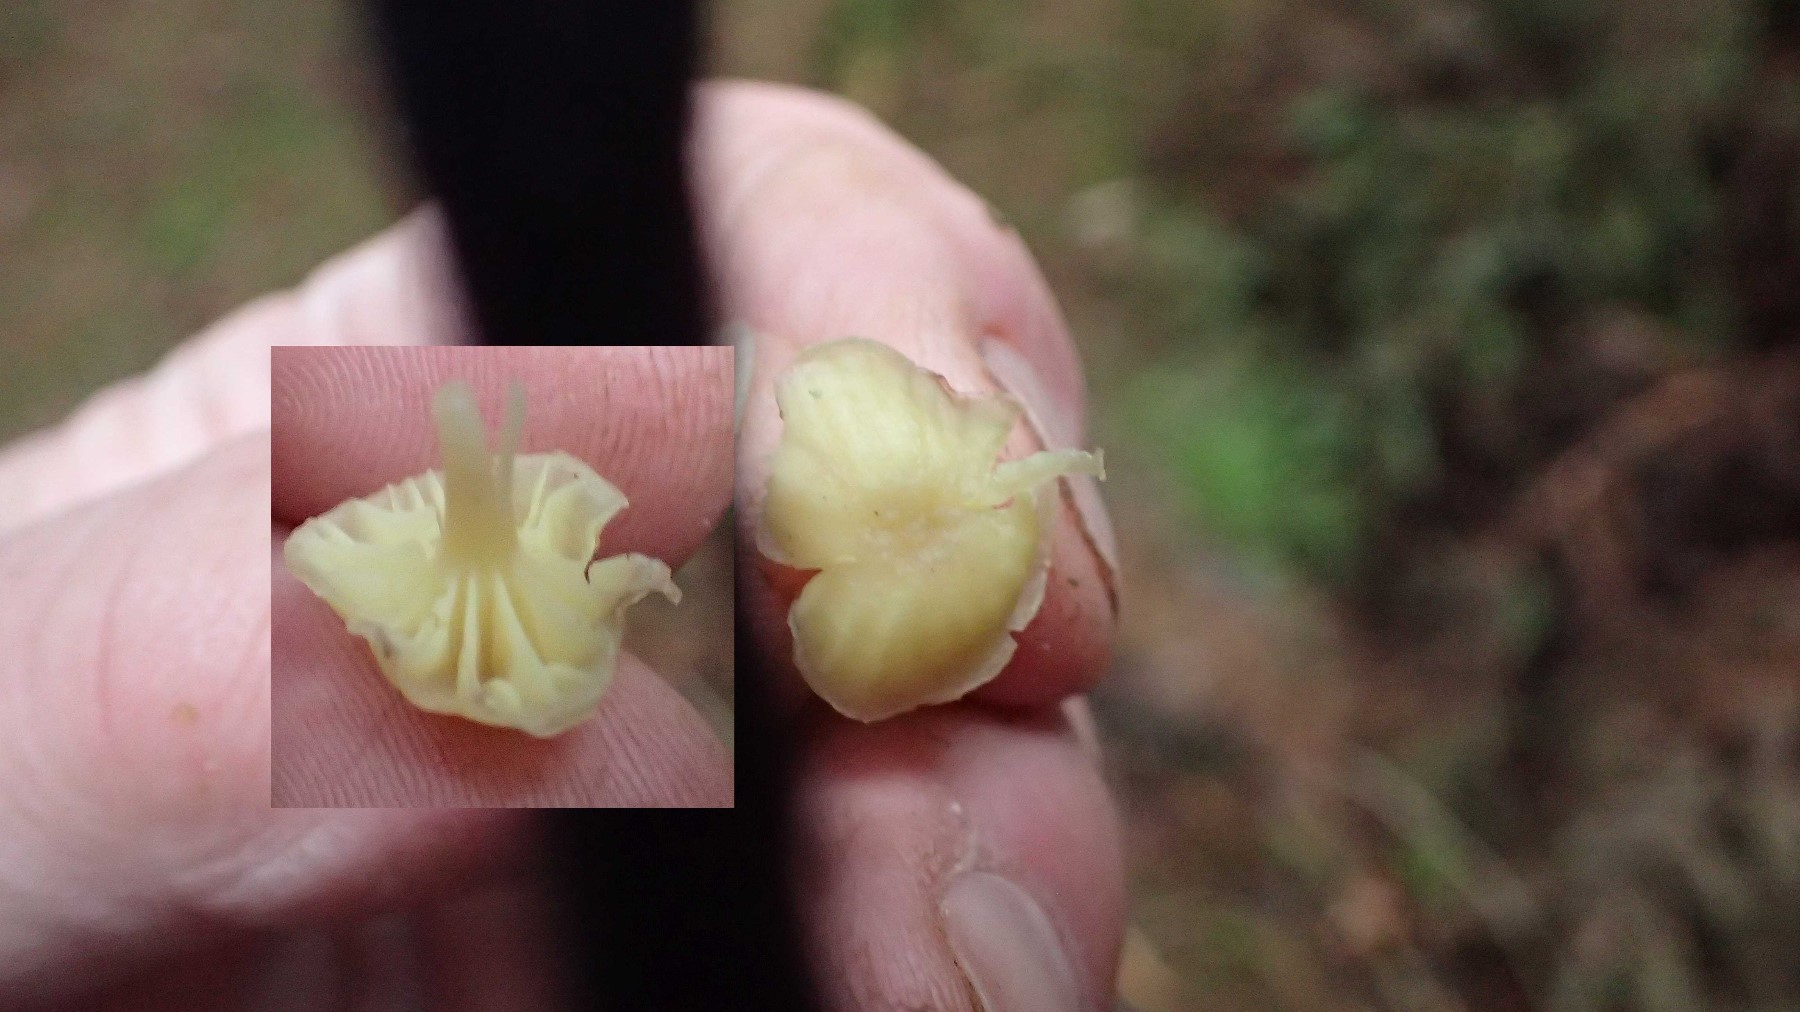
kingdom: Fungi
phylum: Basidiomycota
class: Agaricomycetes
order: Agaricales
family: Hygrophoraceae
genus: Chrysomphalina
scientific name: Chrysomphalina grossula
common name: stød-gyldenblad
